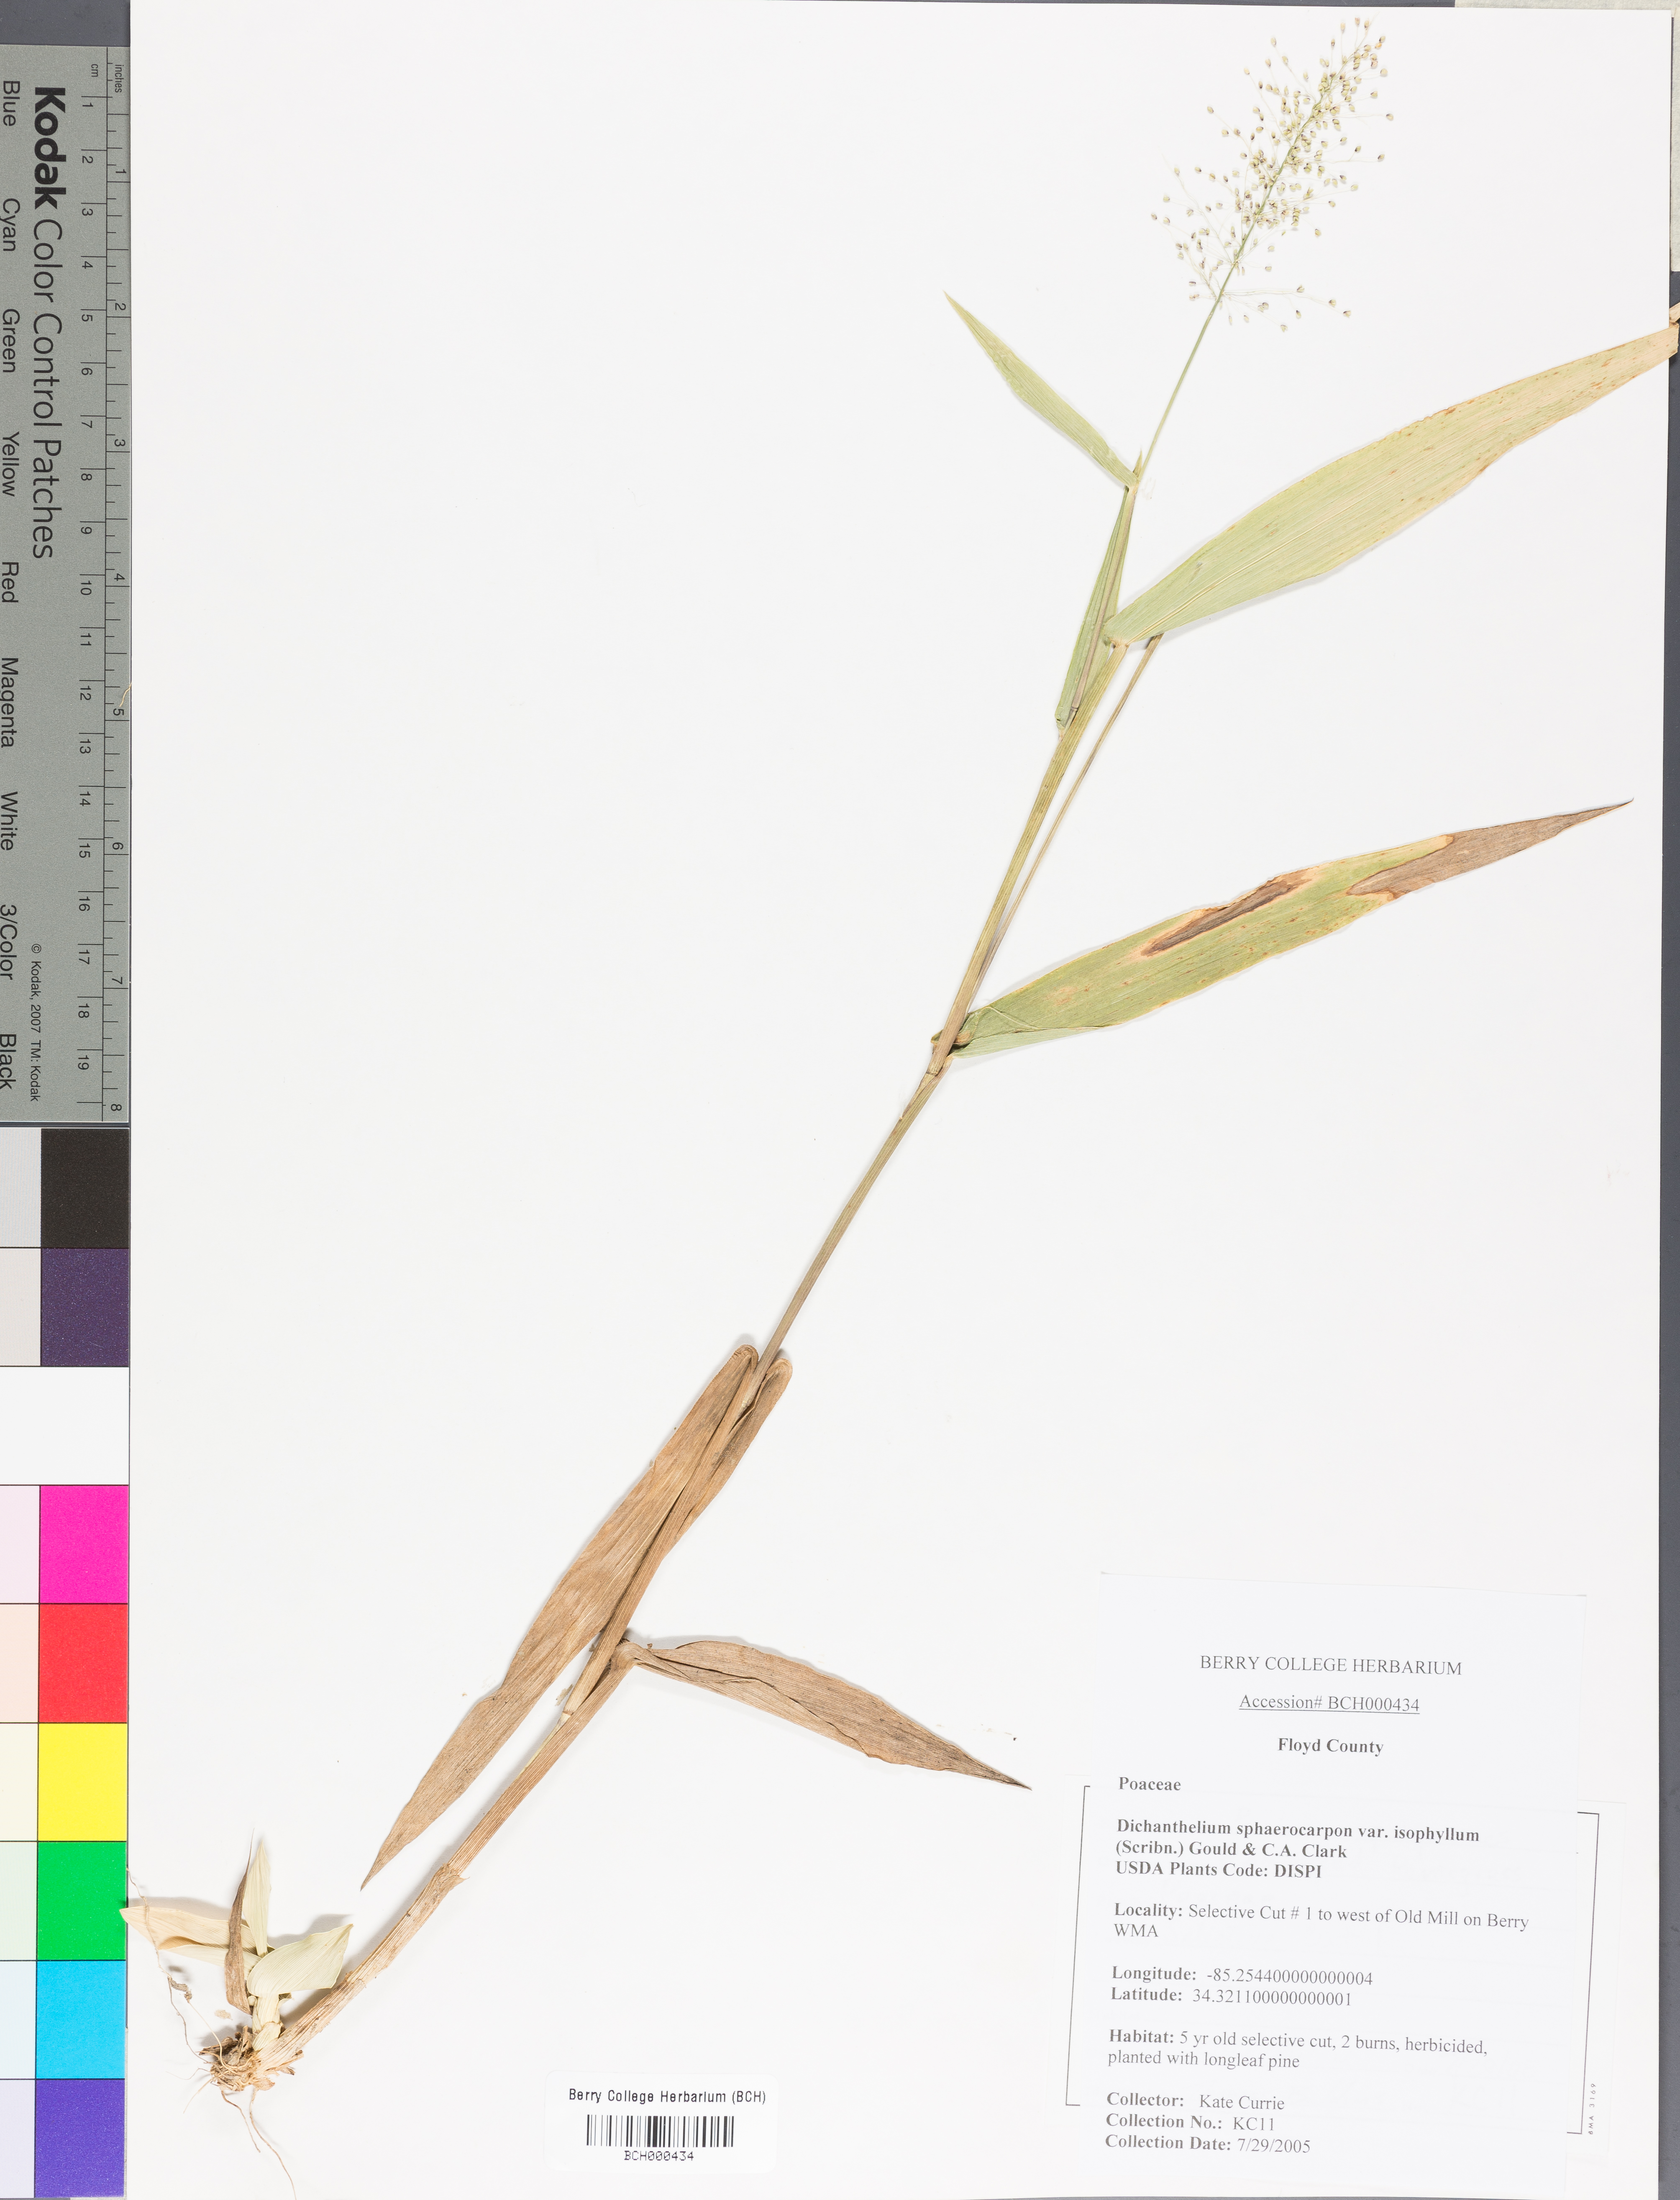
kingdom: Plantae
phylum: Tracheophyta
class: Liliopsida
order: Poales
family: Poaceae
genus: Dichanthelium
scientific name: Dichanthelium polyanthes
